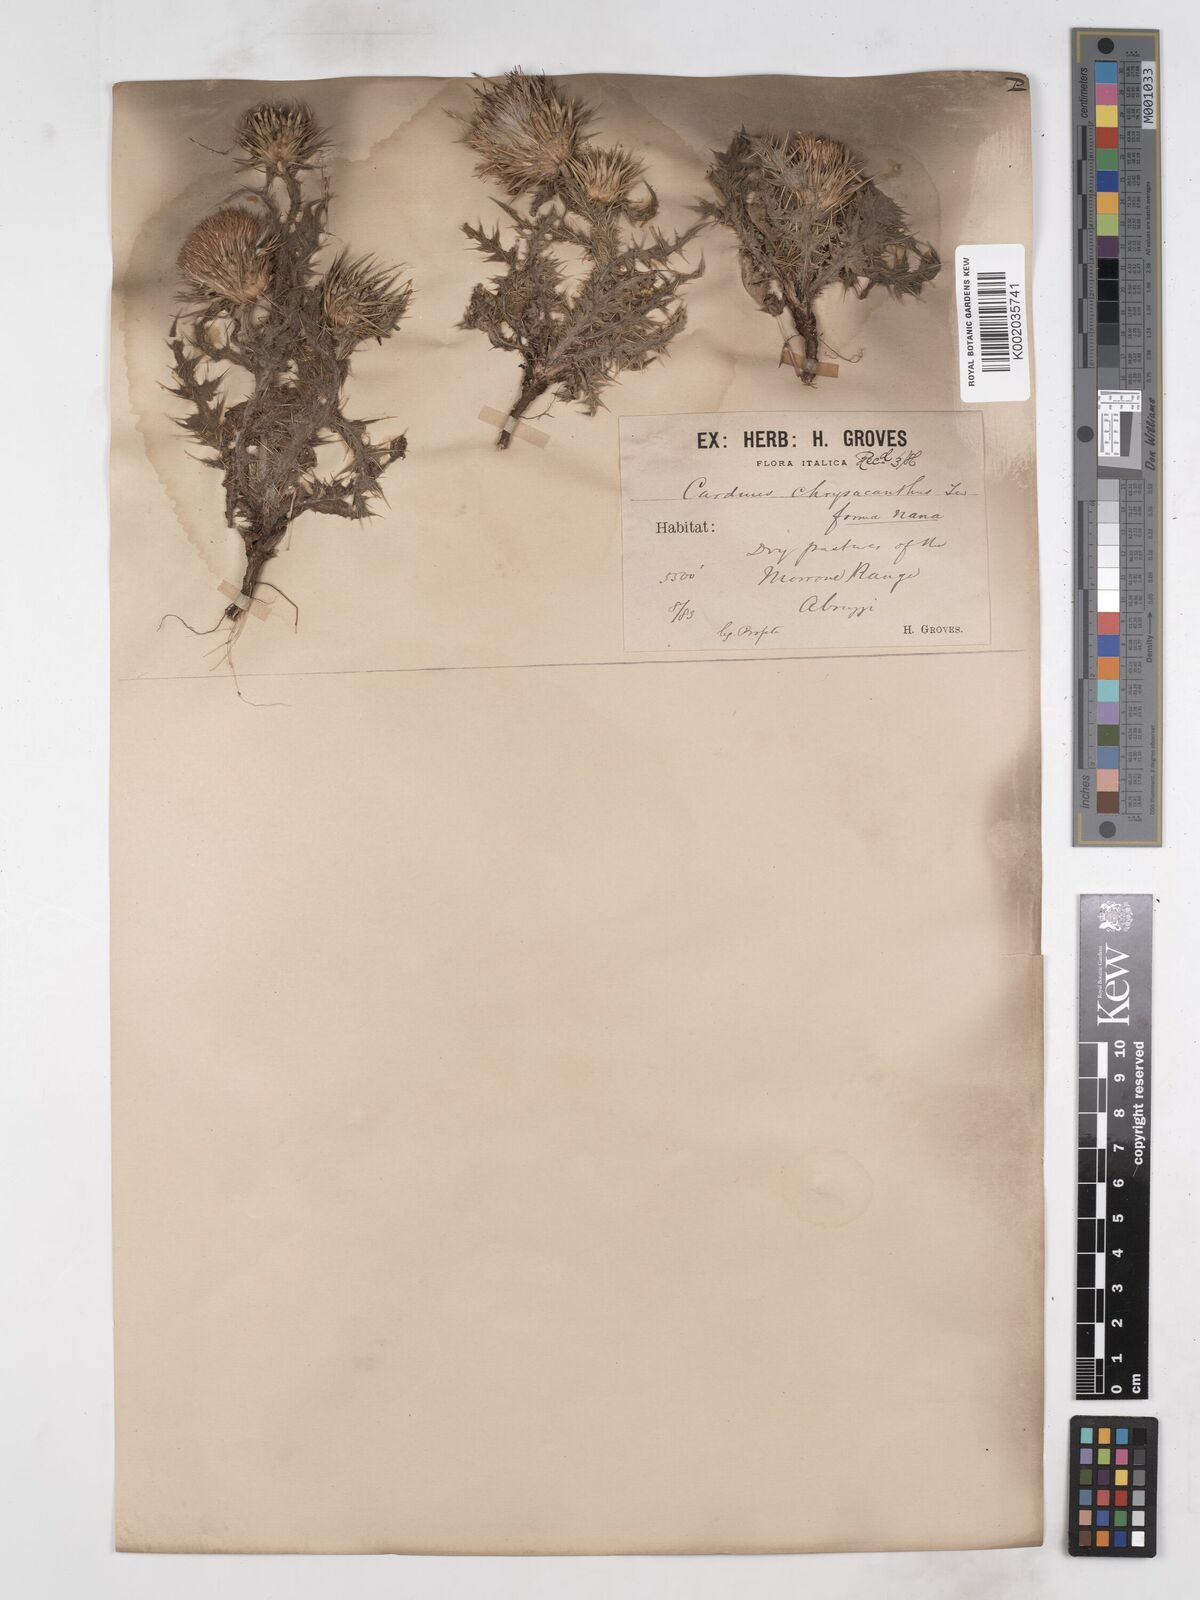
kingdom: Plantae
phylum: Tracheophyta
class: Magnoliopsida
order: Asterales
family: Asteraceae
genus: Carduus
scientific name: Carduus chrysacanthus
